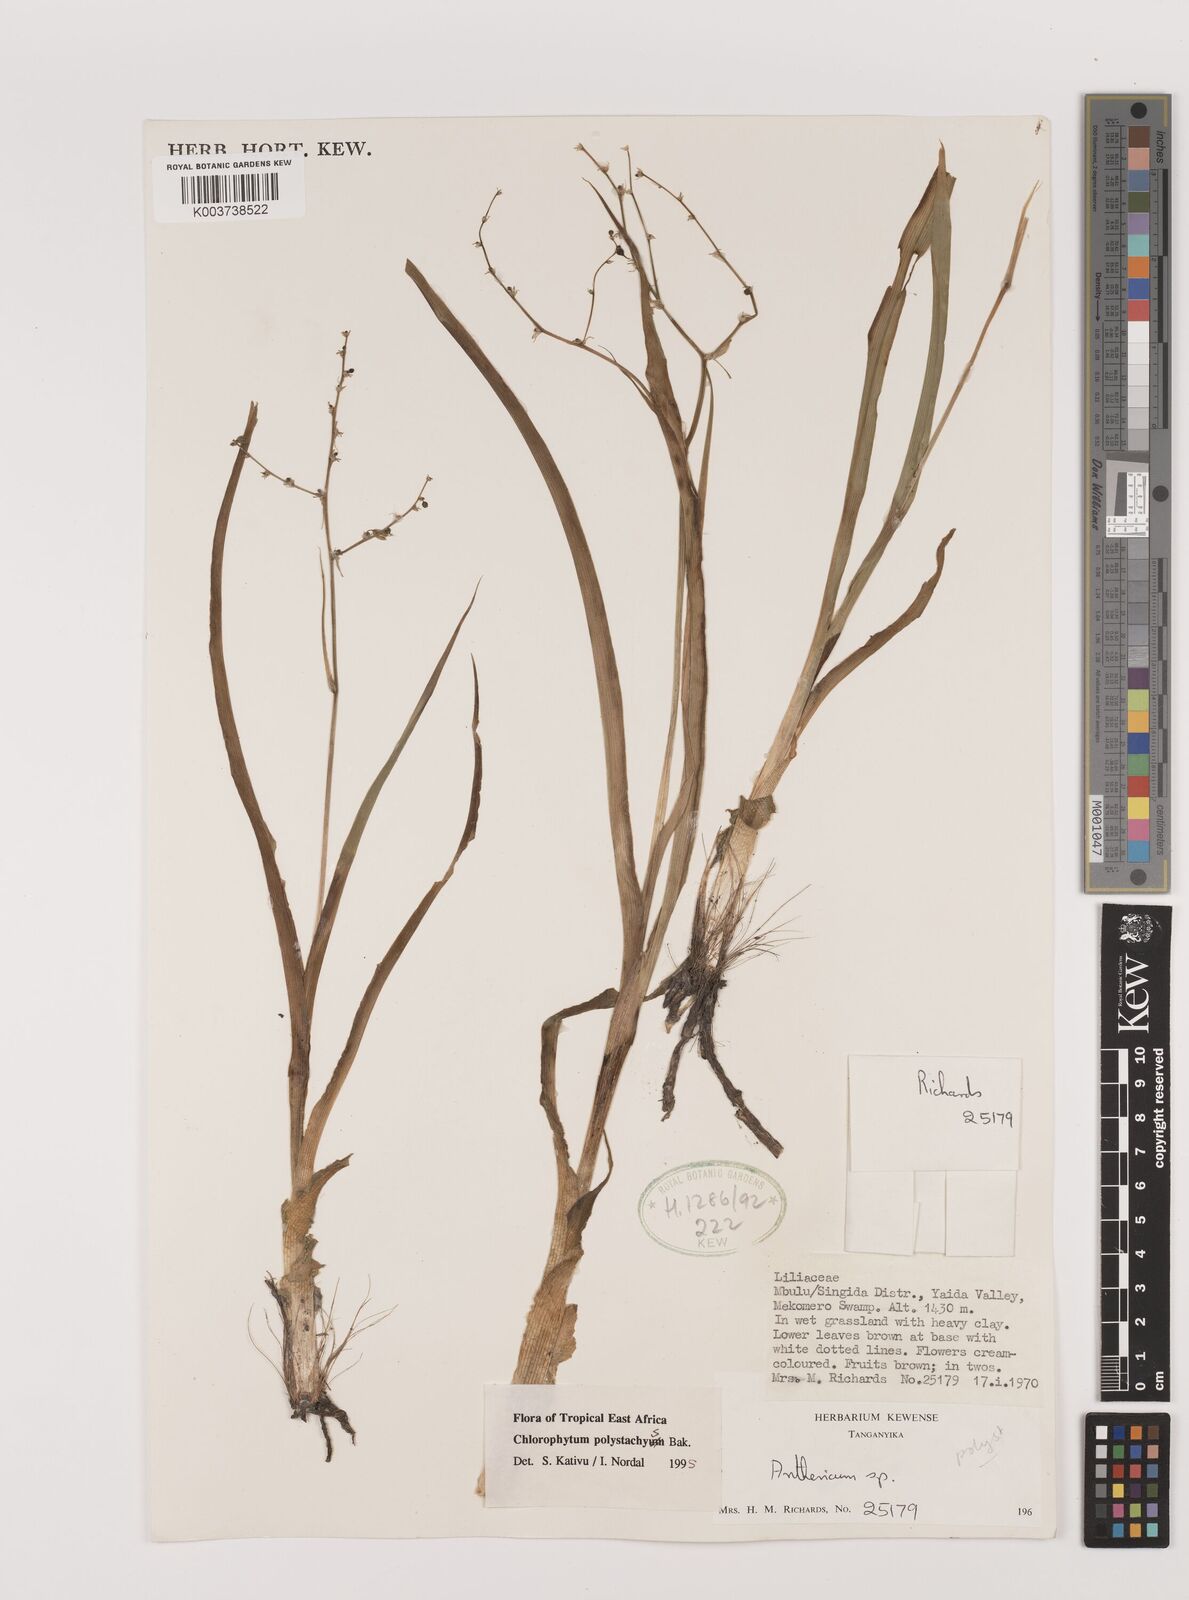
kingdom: Plantae
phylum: Tracheophyta
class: Liliopsida
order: Asparagales
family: Asparagaceae
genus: Chlorophytum
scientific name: Chlorophytum polystachys
